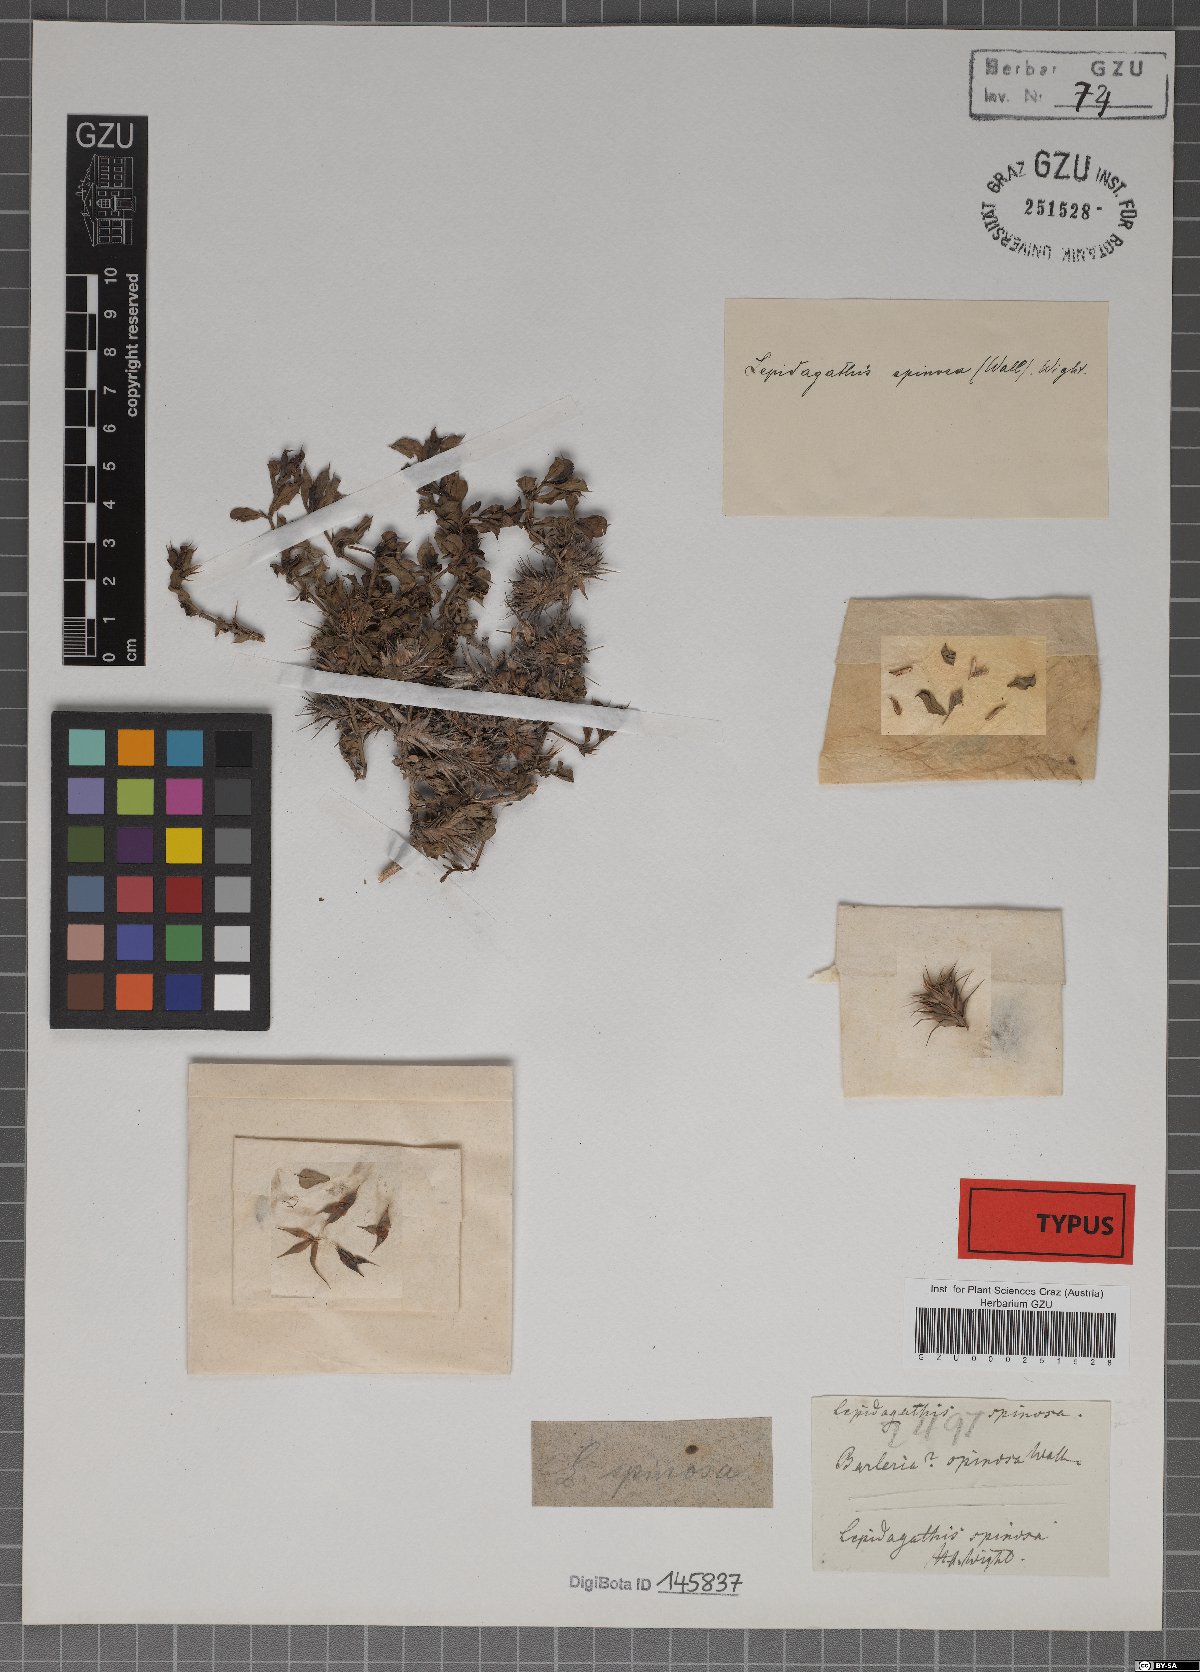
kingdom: Plantae
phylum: Tracheophyta
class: Magnoliopsida
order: Lamiales
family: Acanthaceae
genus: Lepidagathis
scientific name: Lepidagathis spinosa
